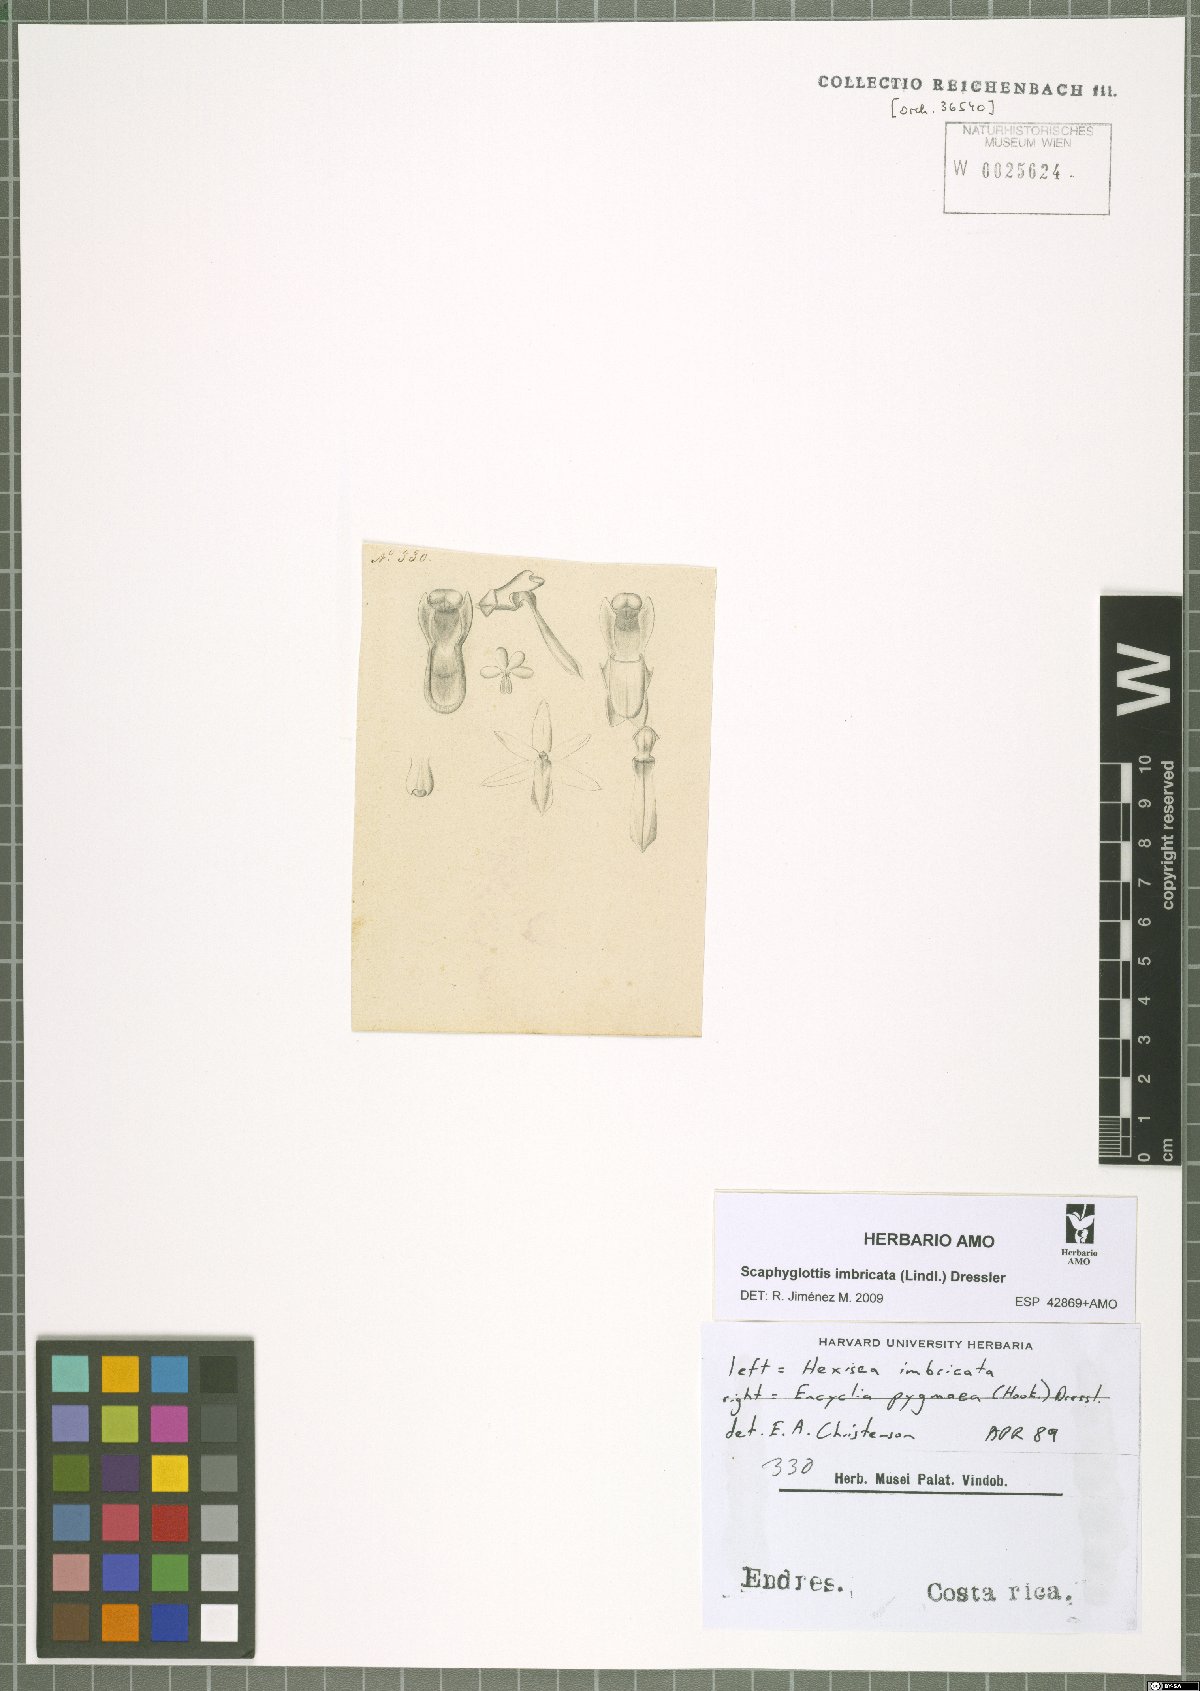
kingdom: Plantae
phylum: Tracheophyta
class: Liliopsida
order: Asparagales
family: Orchidaceae
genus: Scaphyglottis
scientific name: Scaphyglottis imbricata
